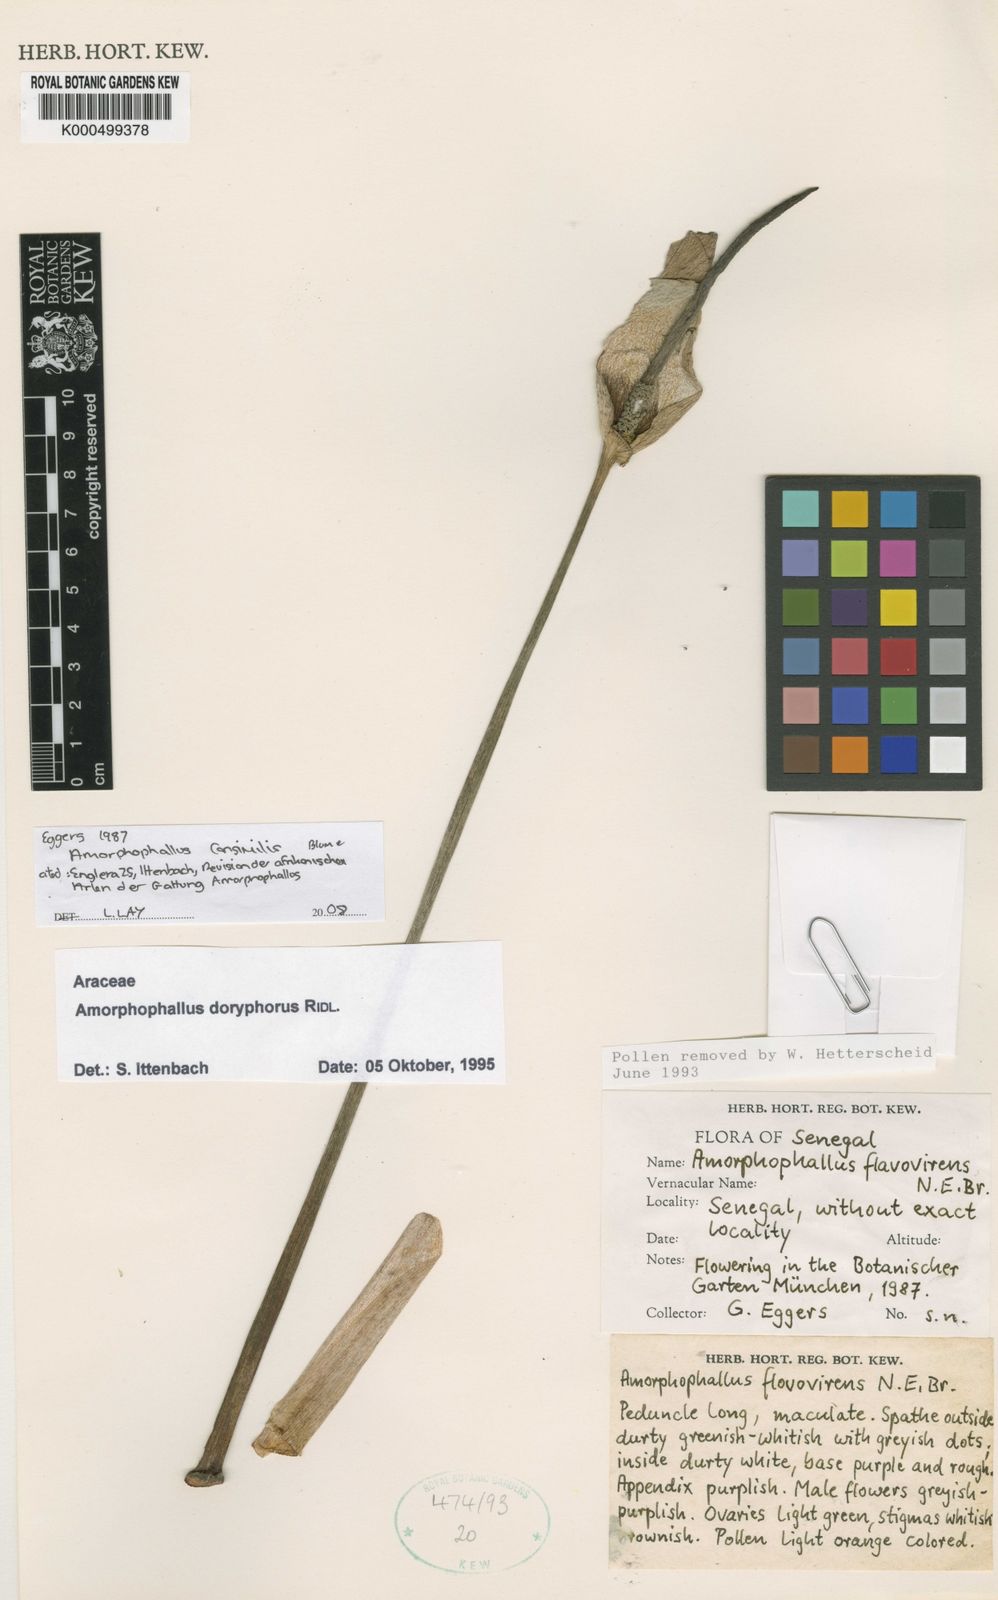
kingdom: Plantae
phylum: Tracheophyta
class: Liliopsida
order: Alismatales
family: Araceae
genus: Amorphophallus
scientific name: Amorphophallus consimilis
